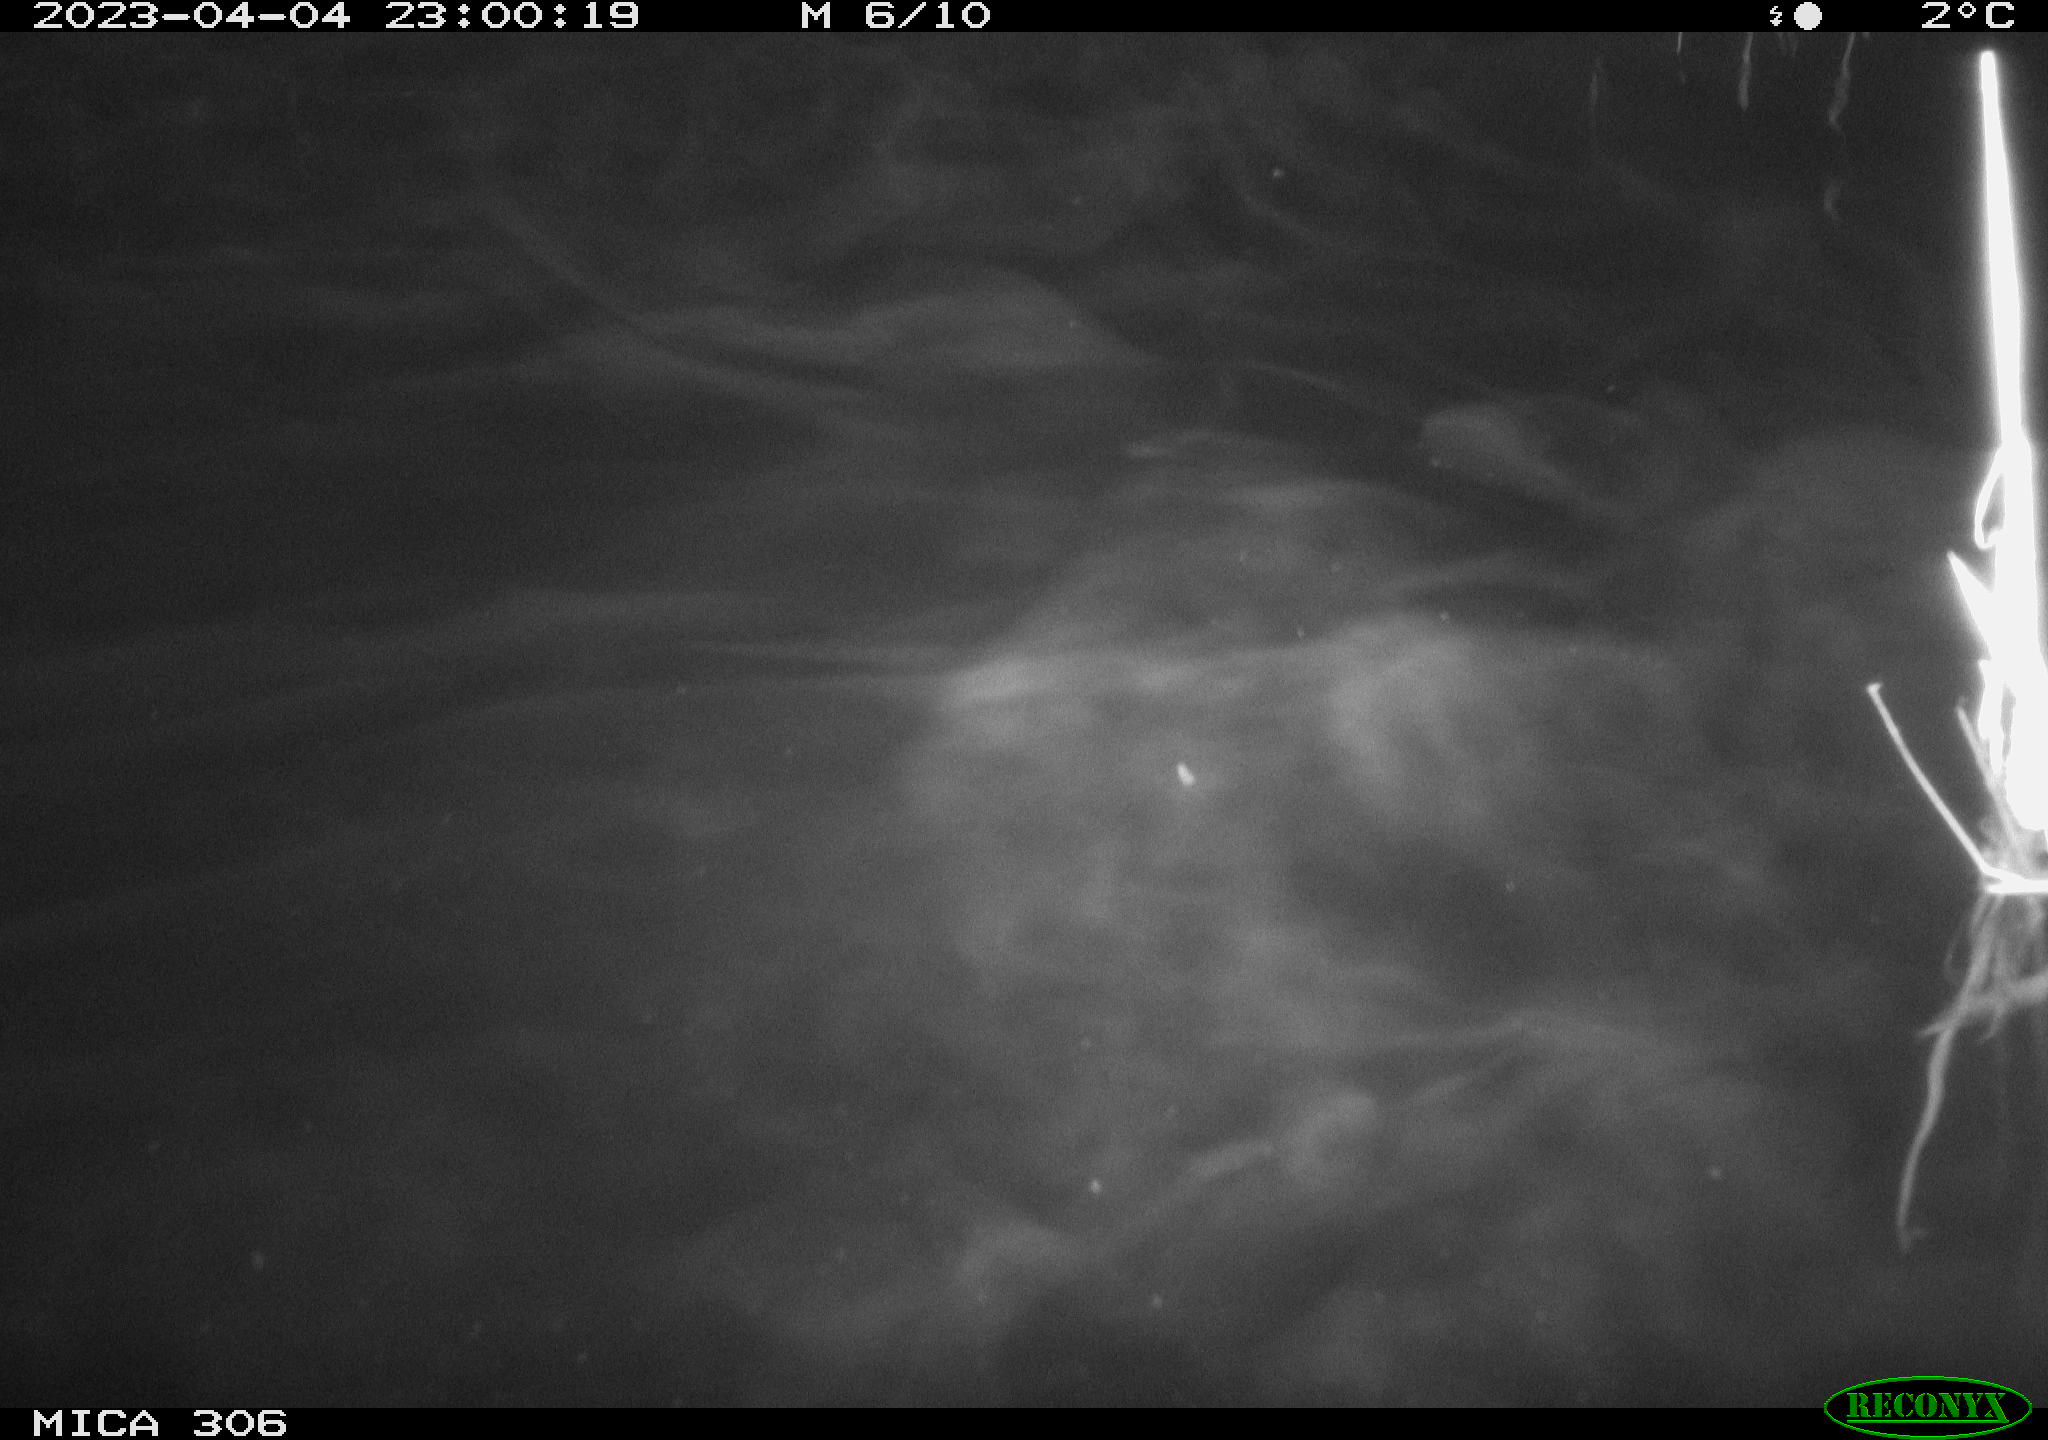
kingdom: Animalia
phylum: Chordata
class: Mammalia
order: Rodentia
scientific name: Rodentia
